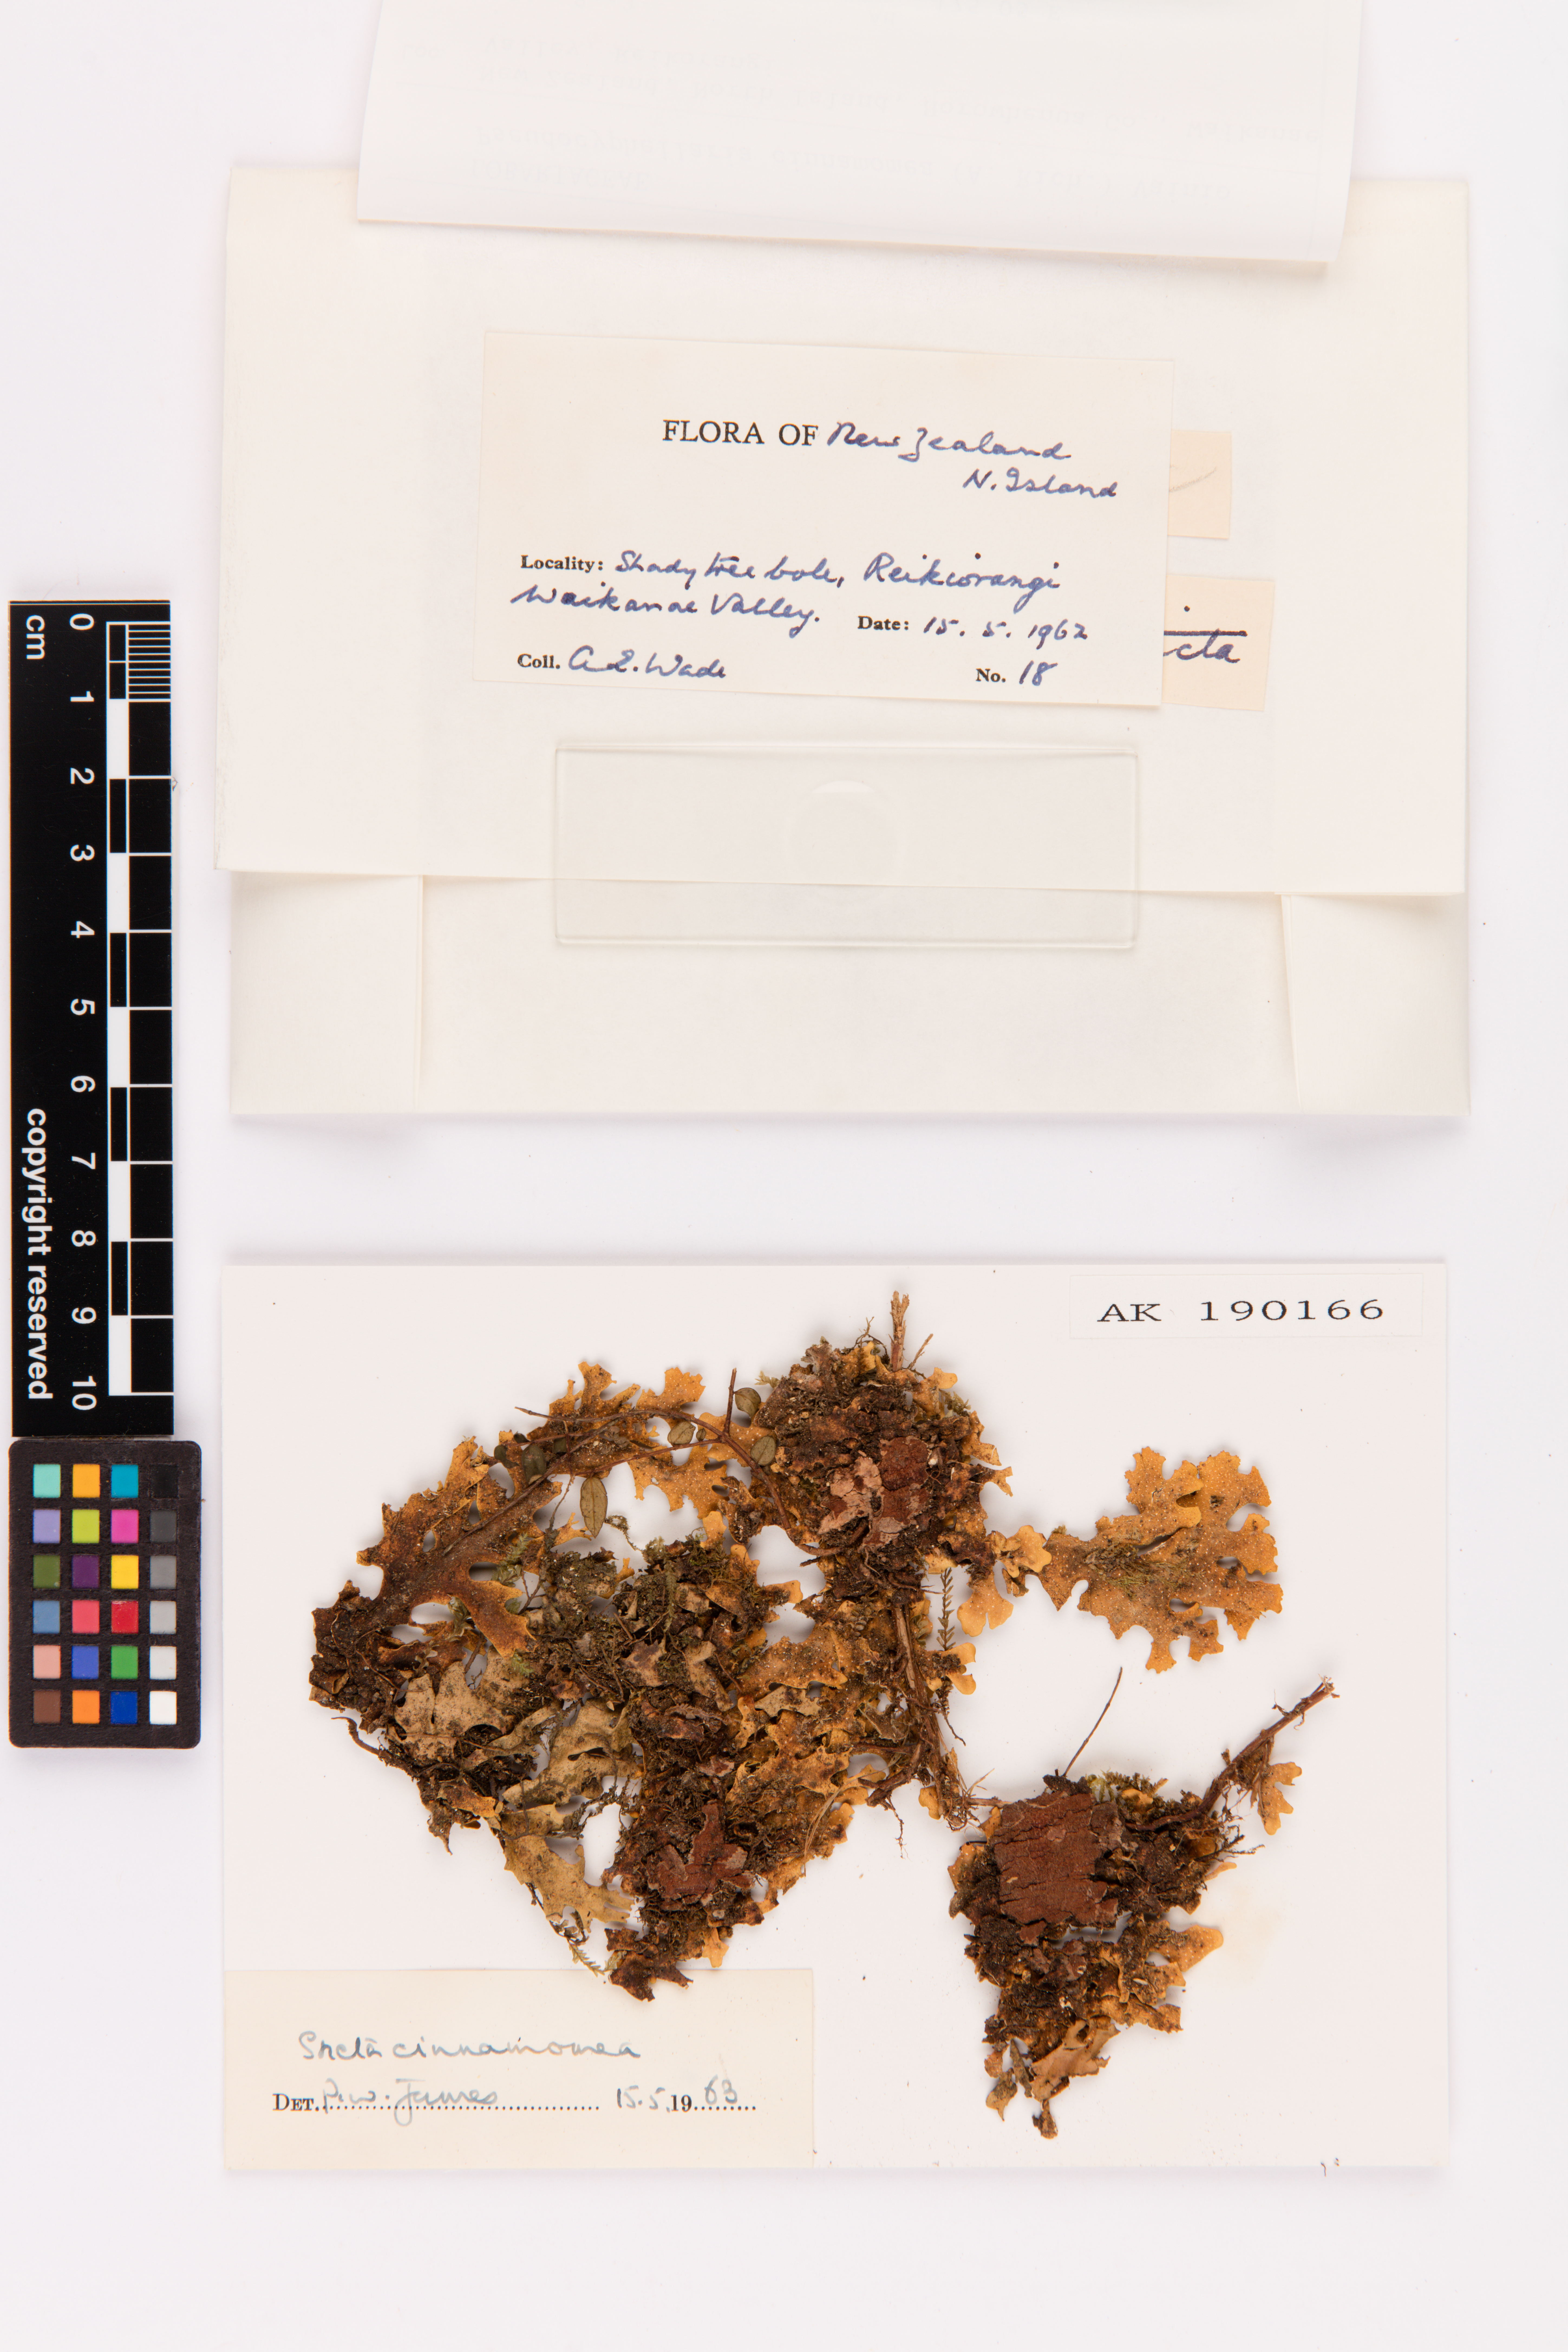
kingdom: Fungi
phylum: Ascomycota
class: Lecanoromycetes
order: Peltigerales
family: Lobariaceae
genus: Pseudocyphellaria
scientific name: Pseudocyphellaria cinnamomea
